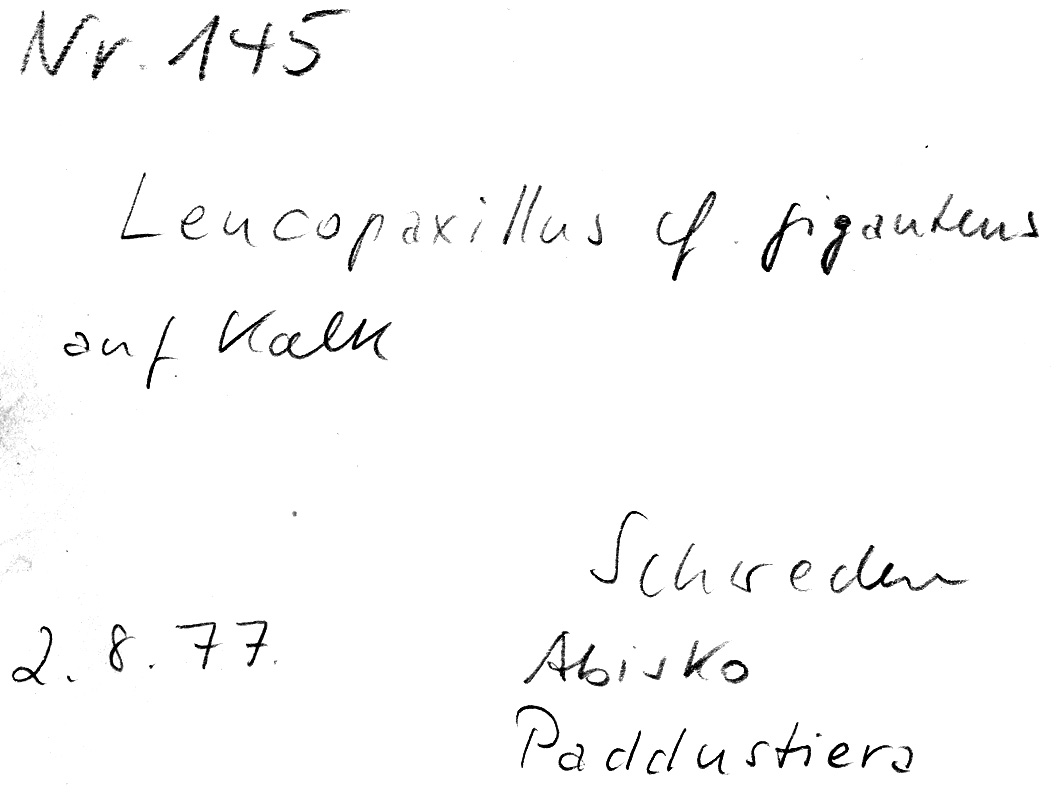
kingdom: Fungi
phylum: Basidiomycota
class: Agaricomycetes
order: Agaricales
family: Tricholomataceae
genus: Aspropaxillus
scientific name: Aspropaxillus giganteus
